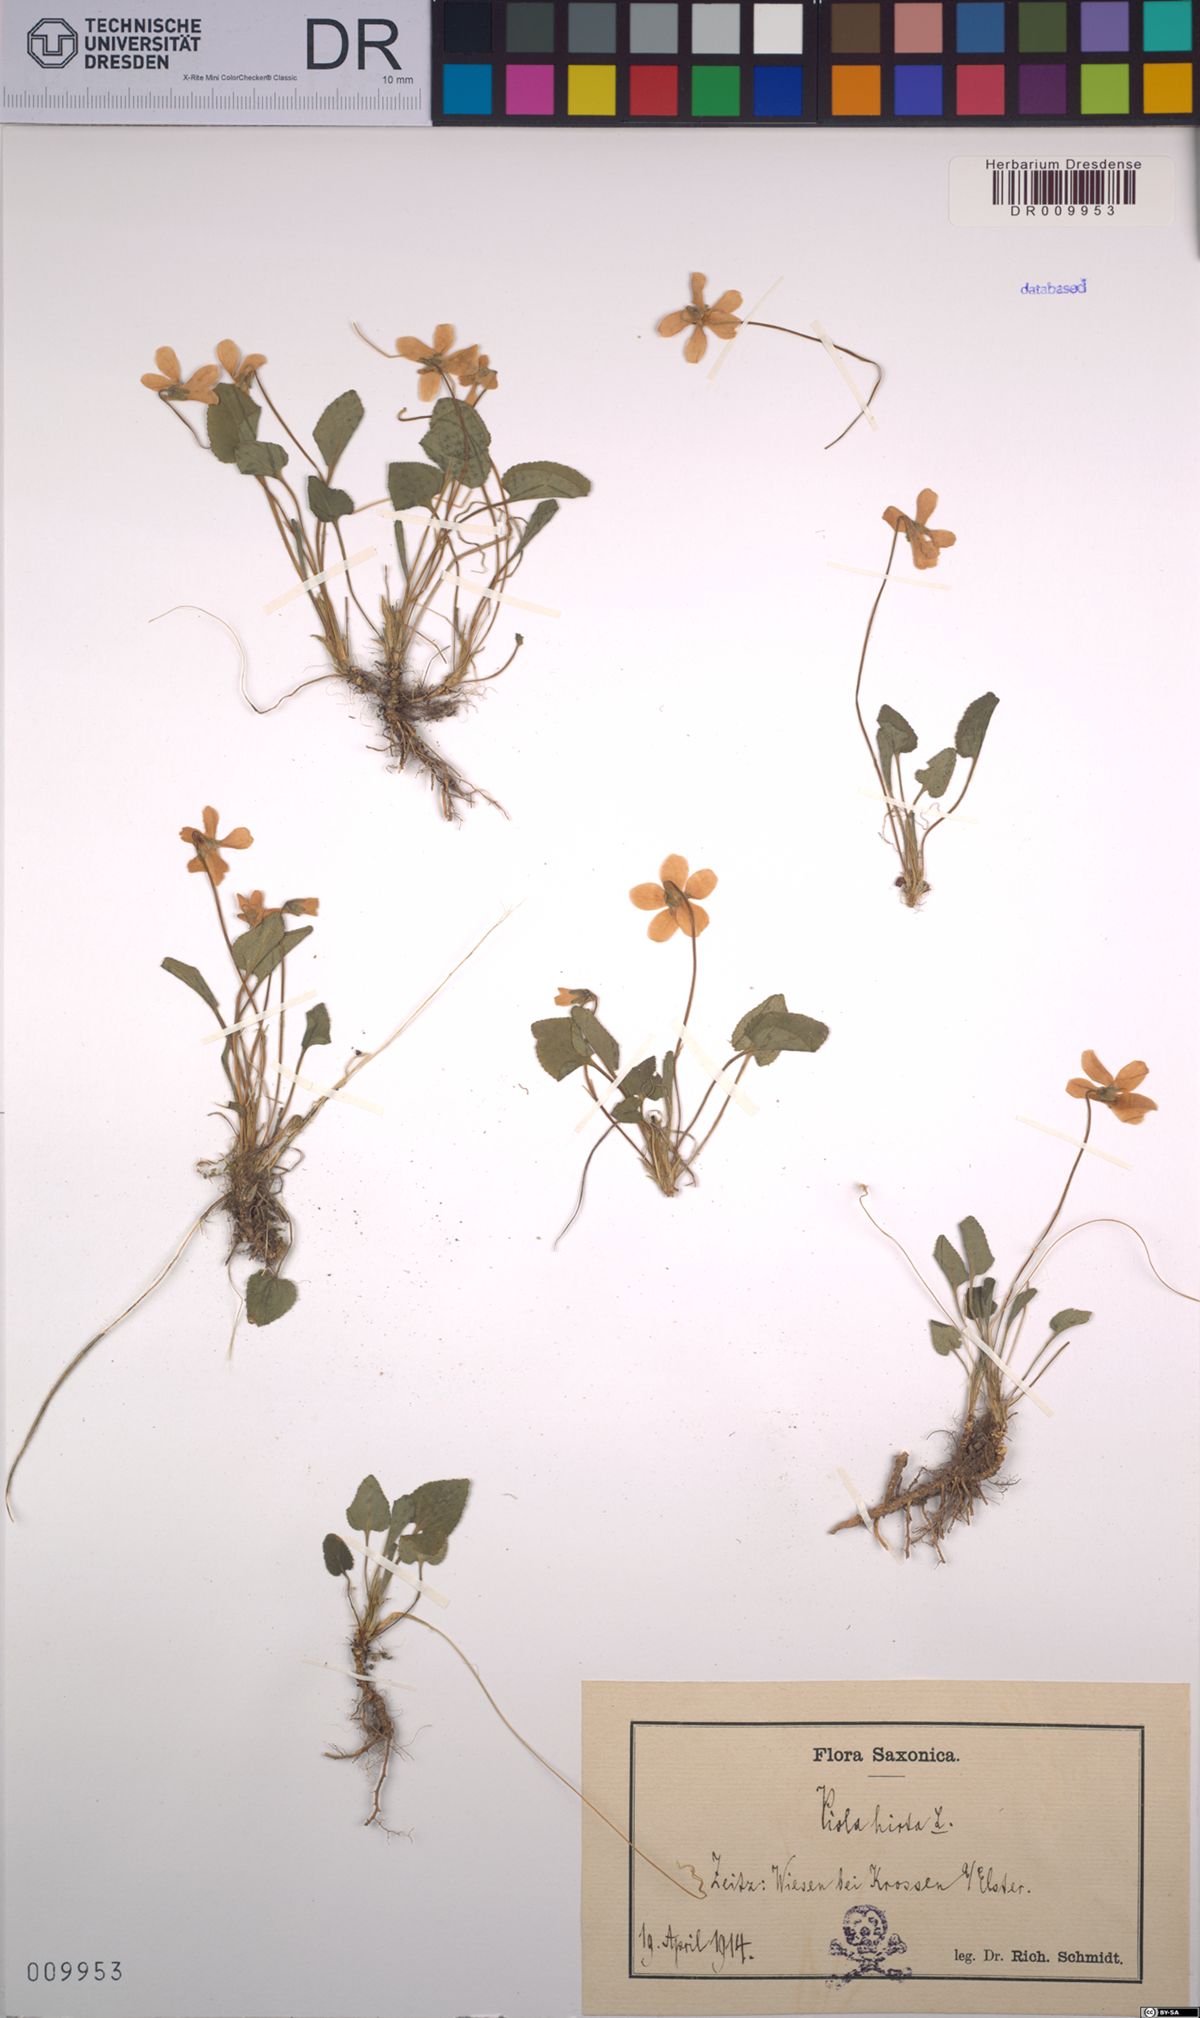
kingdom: Plantae
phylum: Tracheophyta
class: Magnoliopsida
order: Malpighiales
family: Violaceae
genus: Viola
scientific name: Viola hirta
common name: Hairy violet
